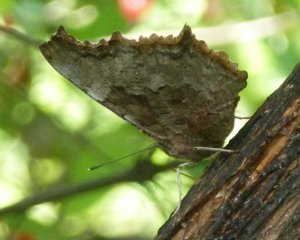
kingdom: Animalia
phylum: Arthropoda
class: Insecta
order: Lepidoptera
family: Nymphalidae
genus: Polygonia
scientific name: Polygonia vaualbum
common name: Compton Tortoiseshell
